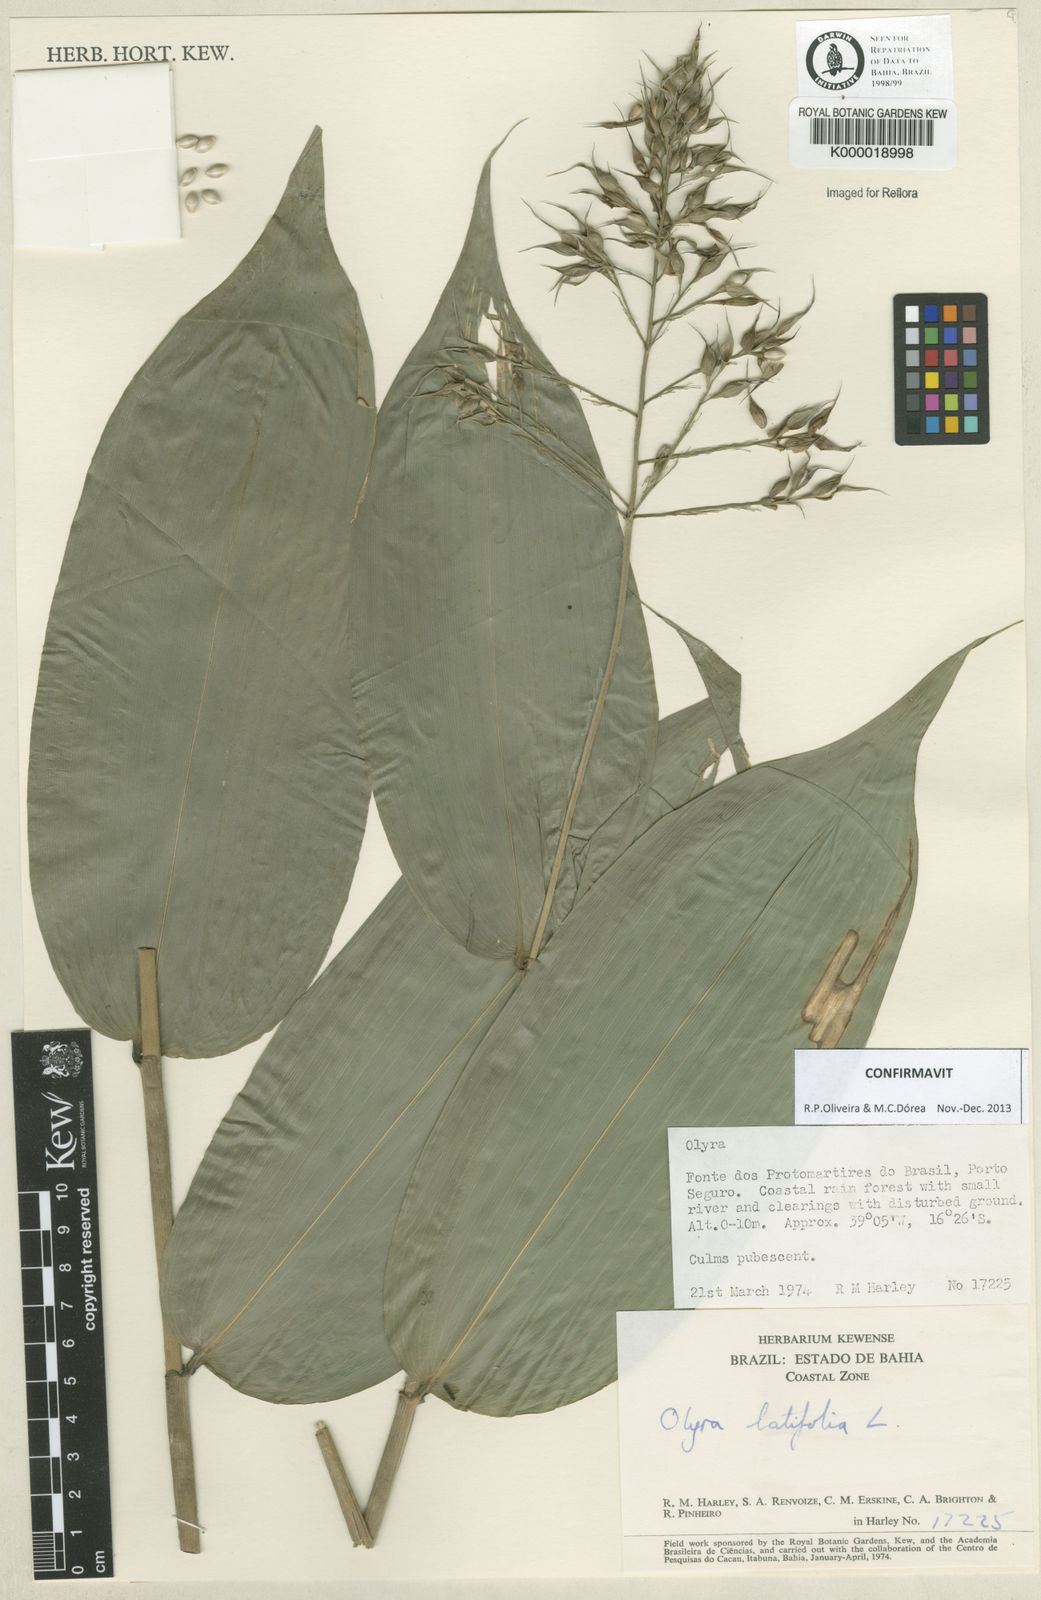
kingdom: Plantae
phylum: Tracheophyta
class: Liliopsida
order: Poales
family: Poaceae
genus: Olyra
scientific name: Olyra latifolia
